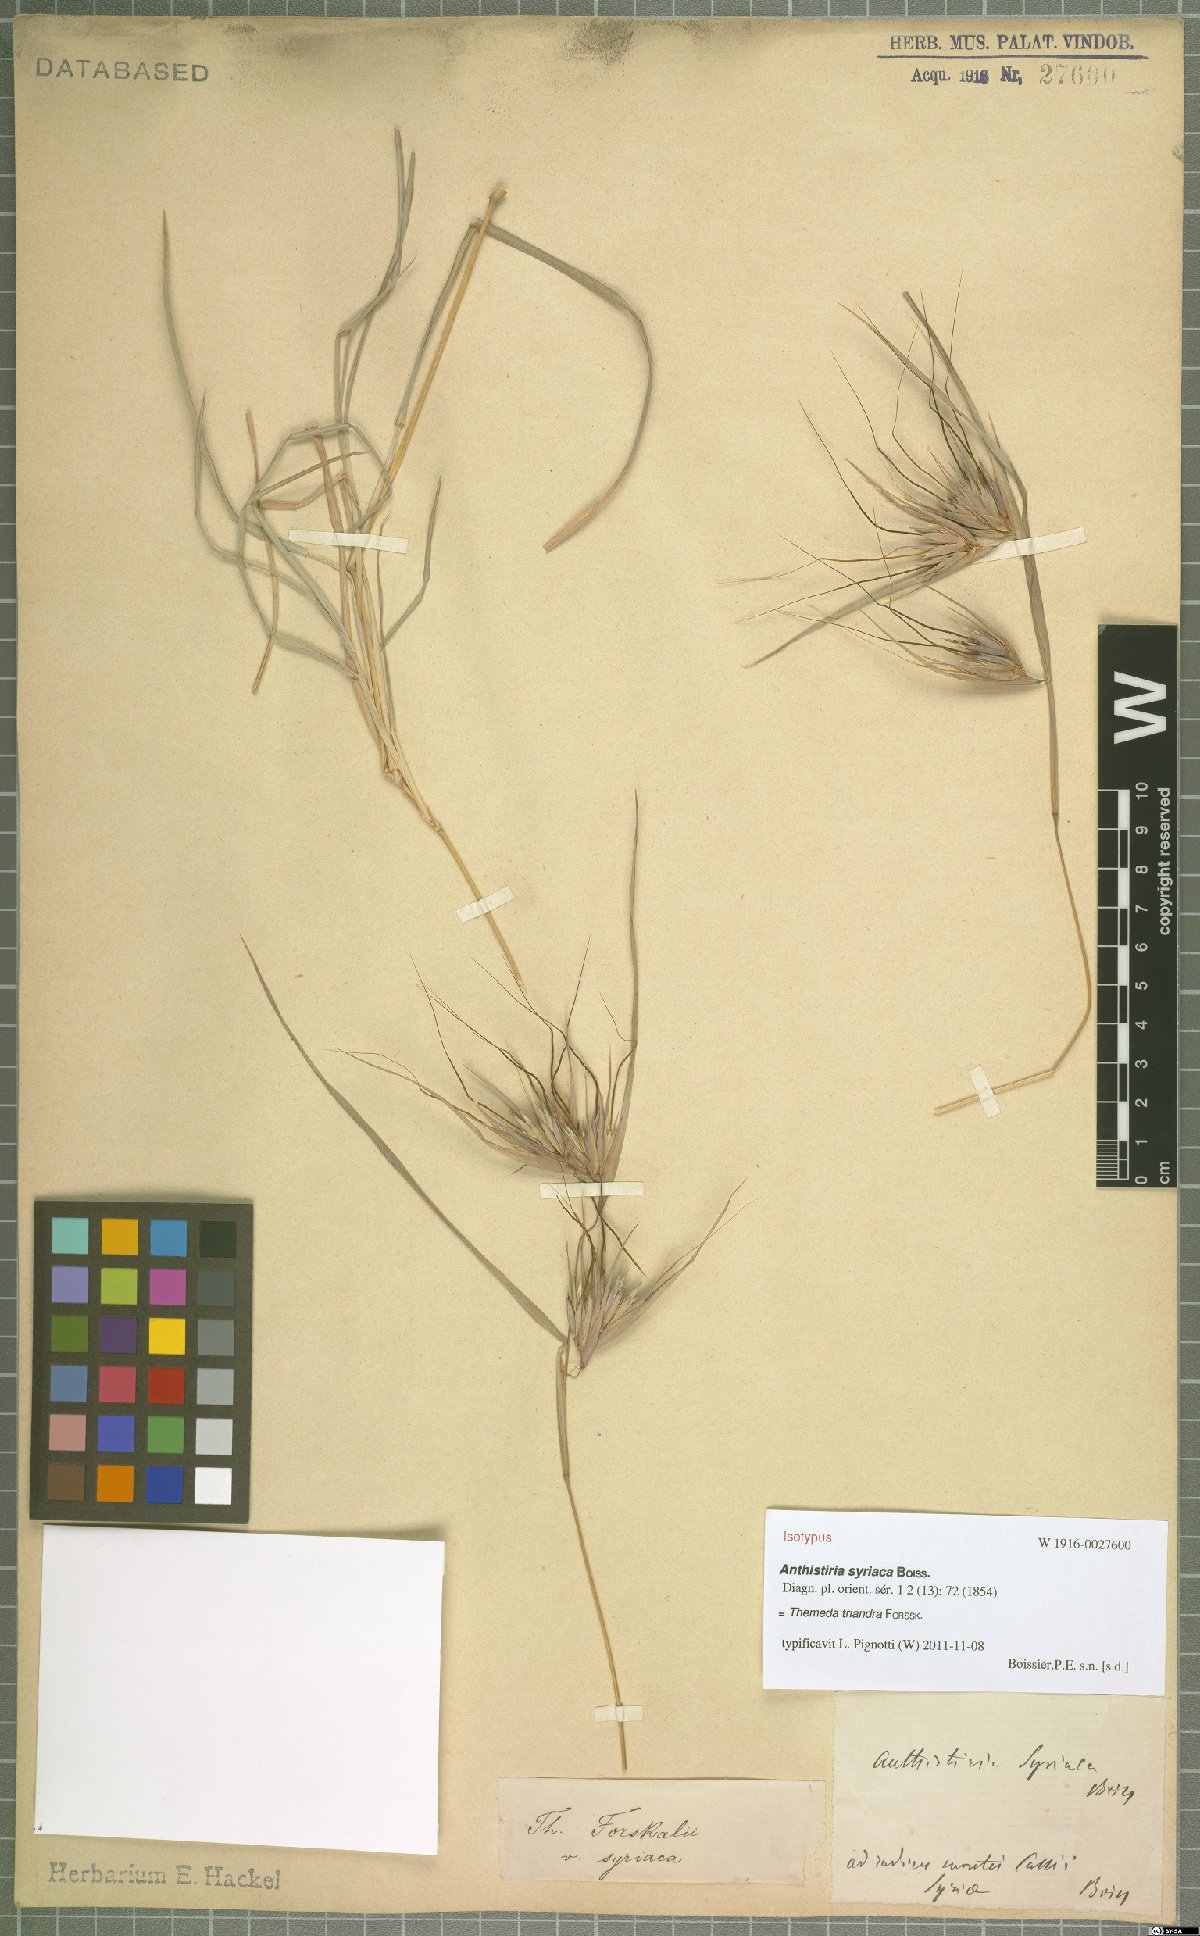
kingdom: Plantae
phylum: Tracheophyta
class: Liliopsida
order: Poales
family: Poaceae
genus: Themeda
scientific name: Themeda triandra
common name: Kangaroo grass
